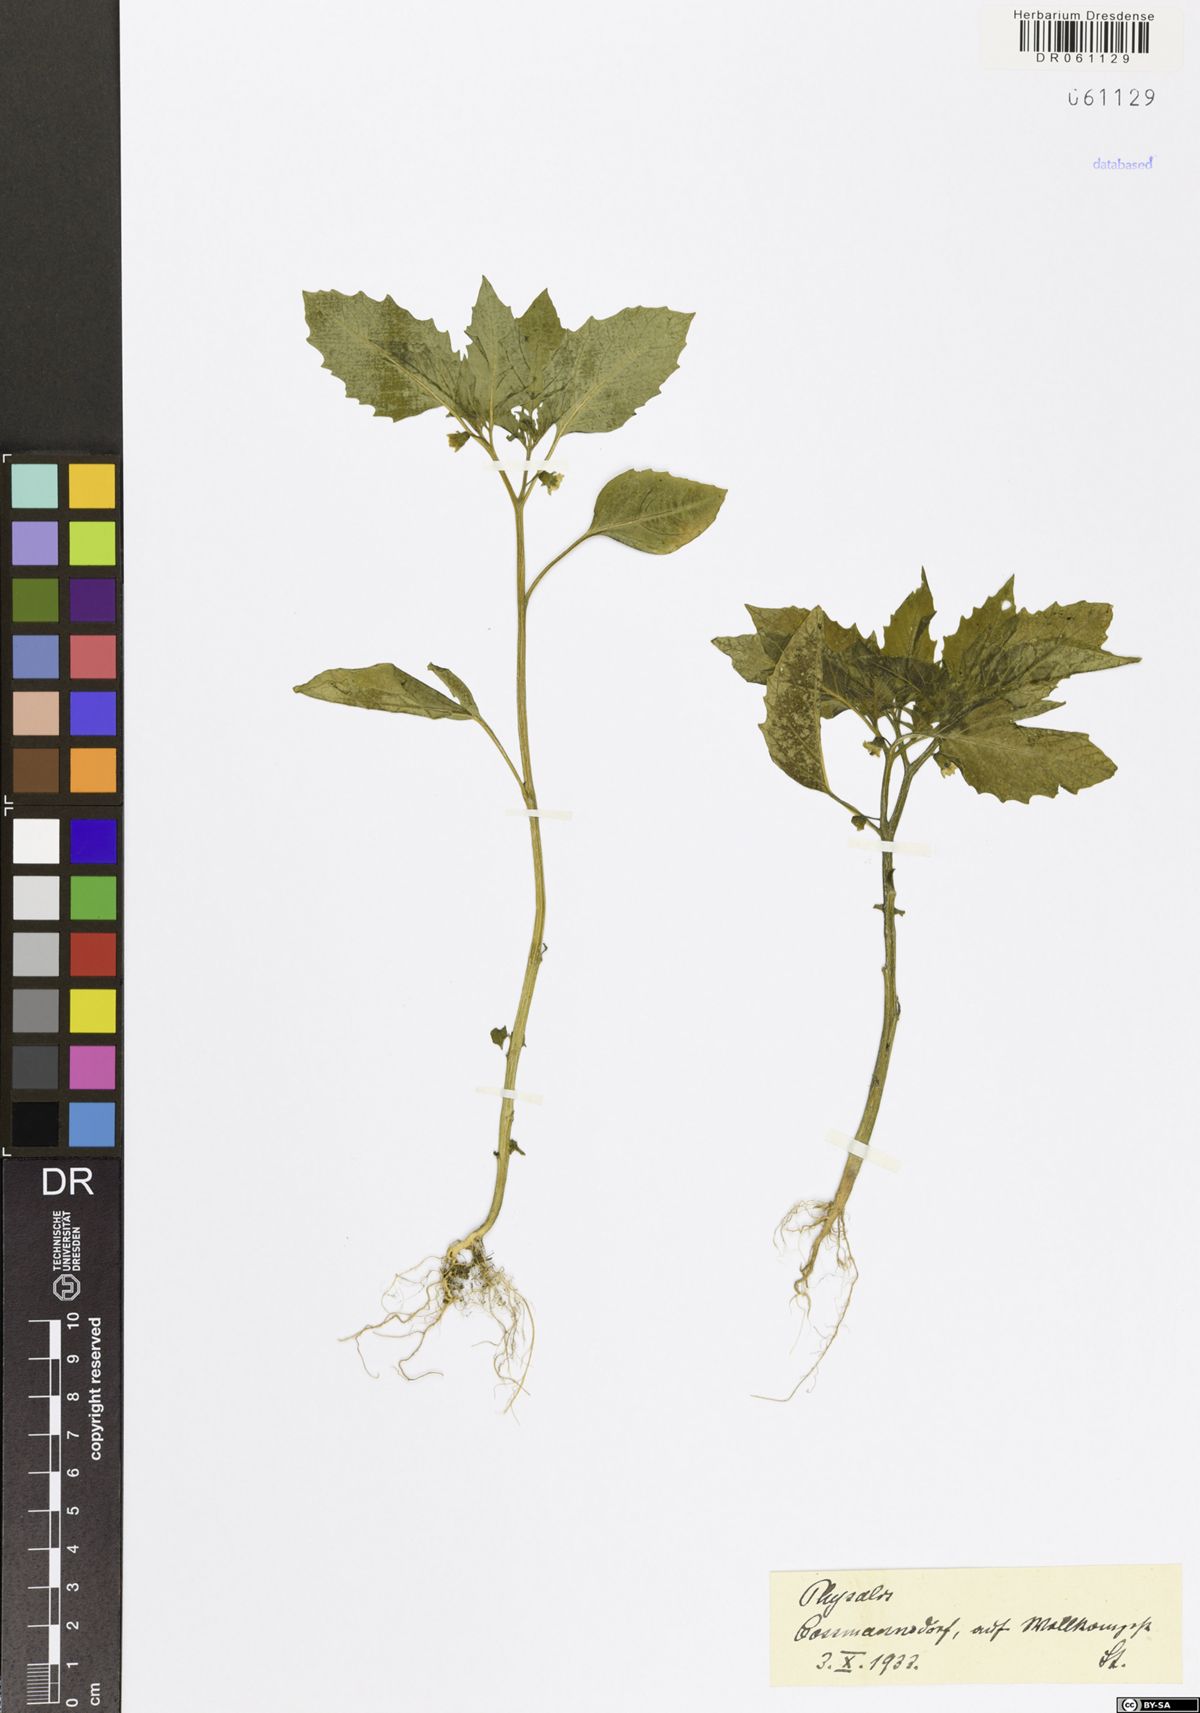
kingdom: Plantae
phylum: Tracheophyta
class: Magnoliopsida
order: Solanales
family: Solanaceae
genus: Physalis
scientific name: Physalis
